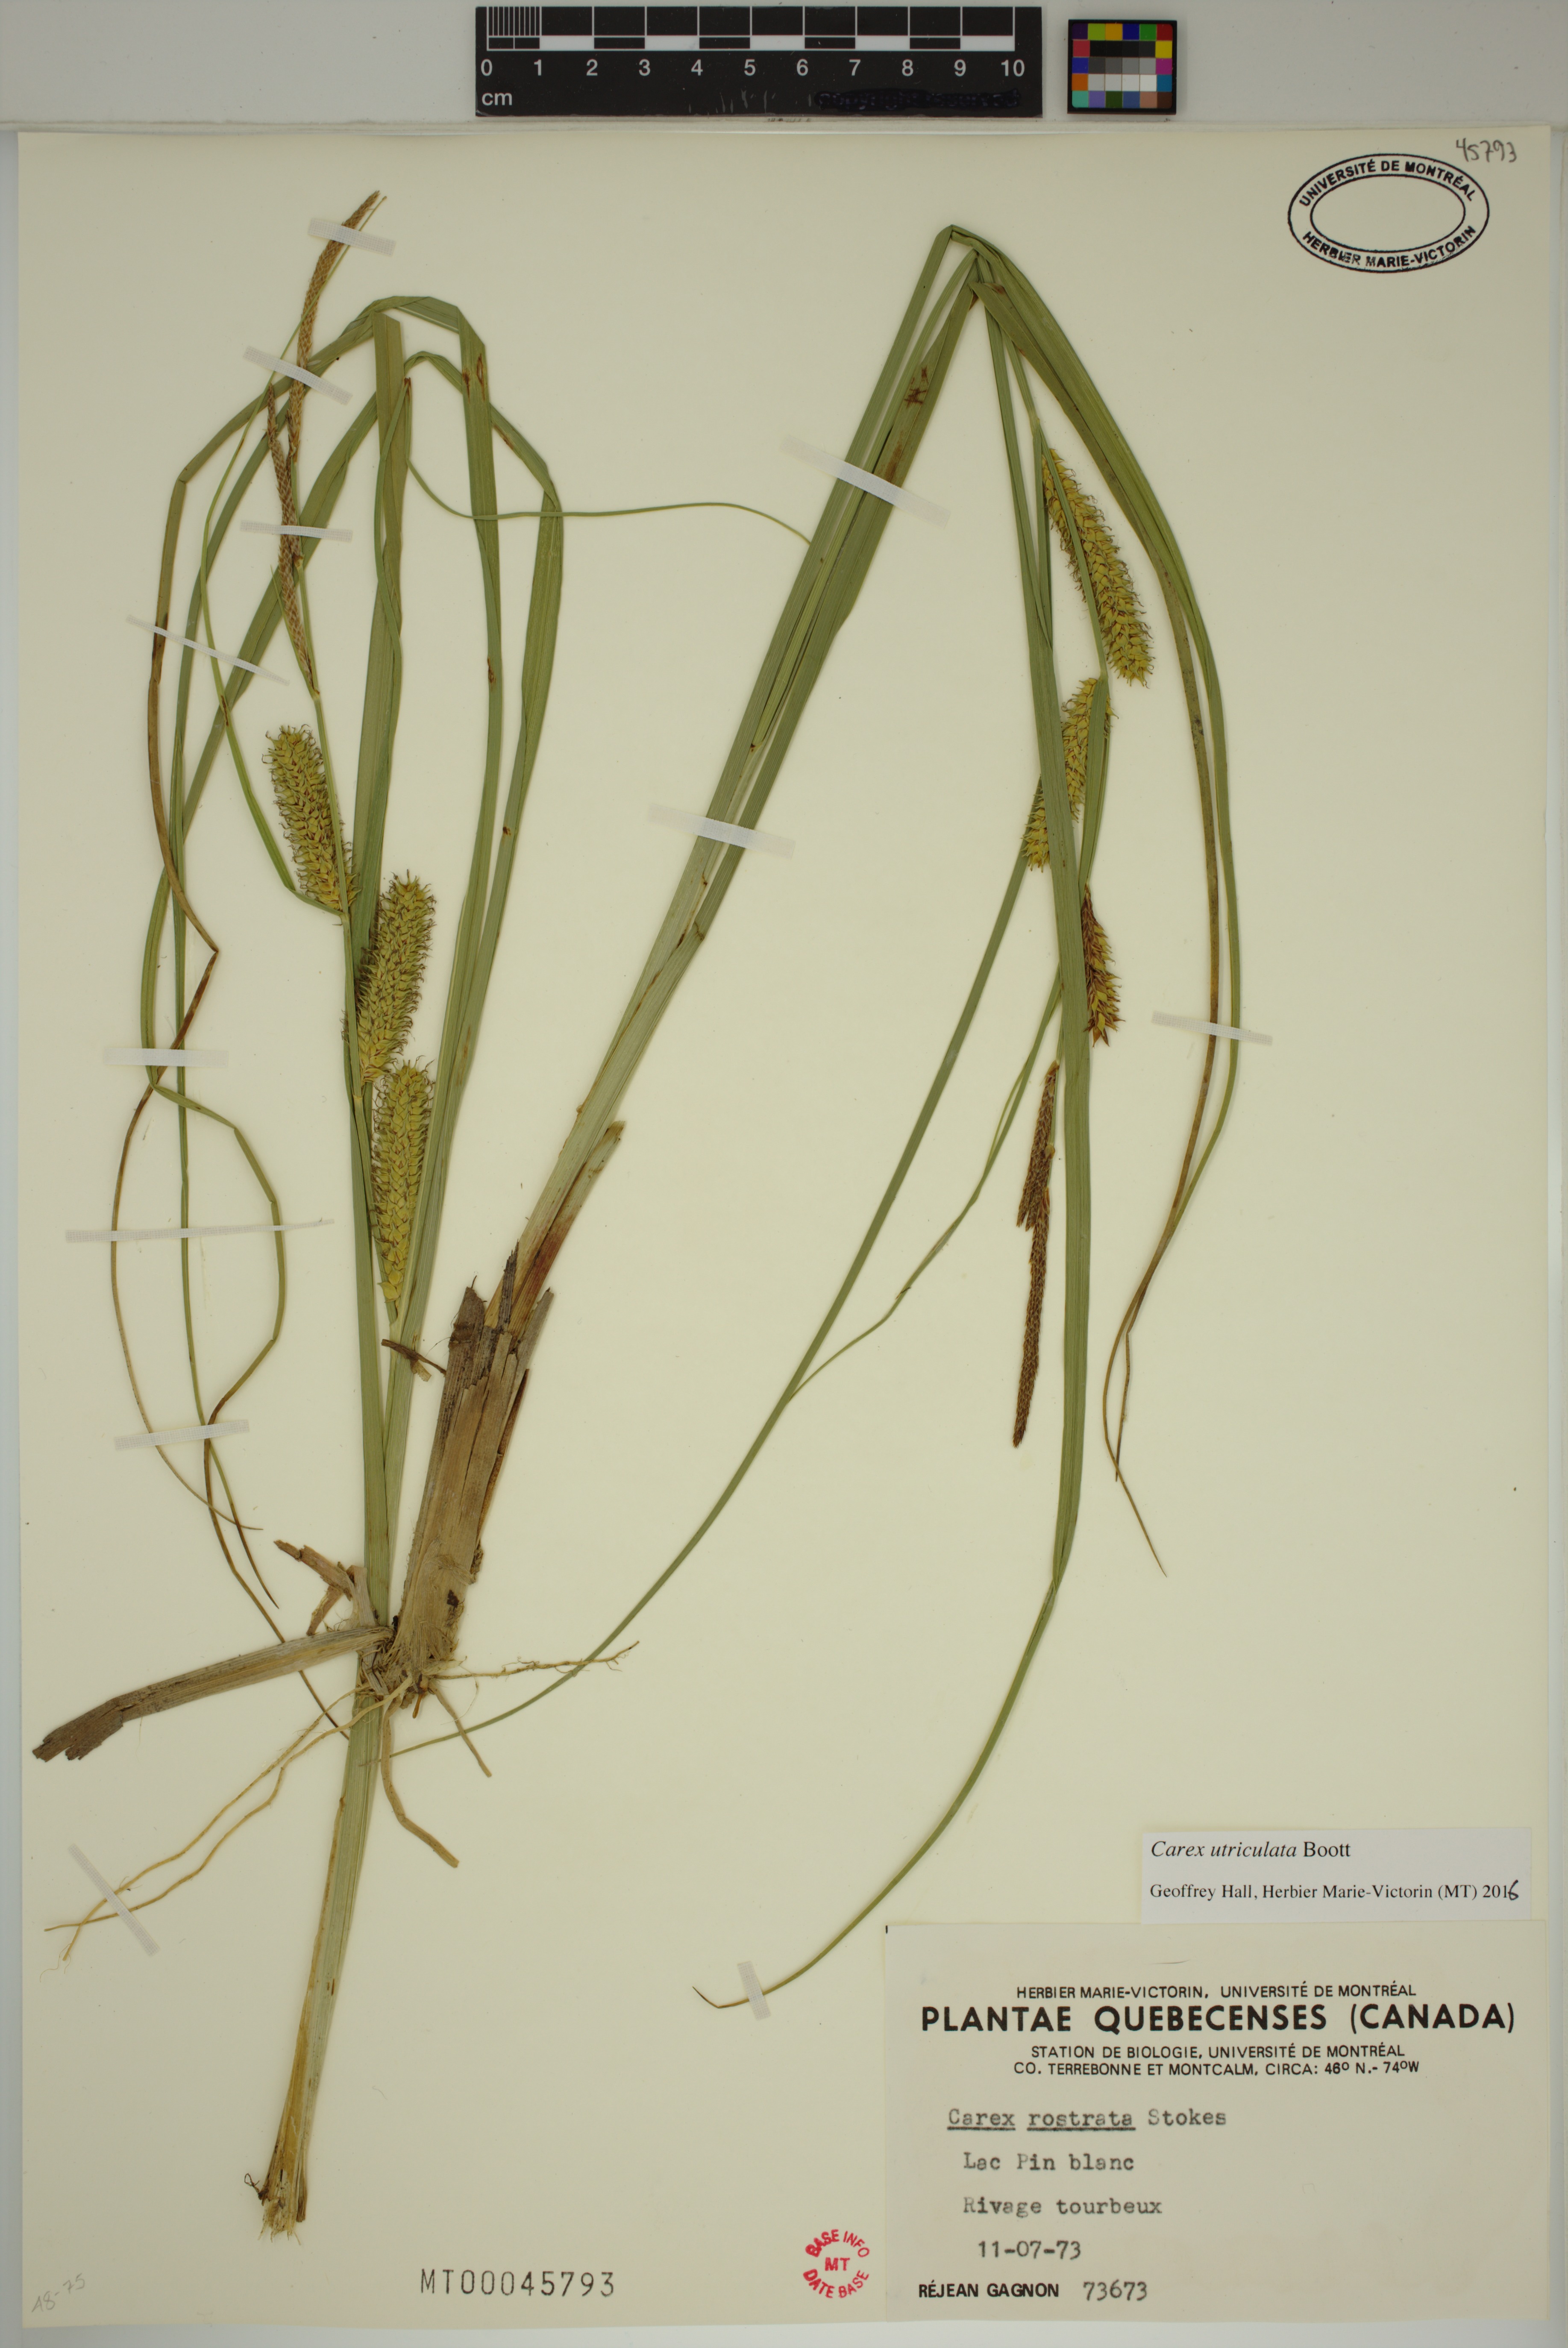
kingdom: Plantae
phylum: Tracheophyta
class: Liliopsida
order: Poales
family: Cyperaceae
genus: Carex
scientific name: Carex utriculata
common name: Beaked sedge
